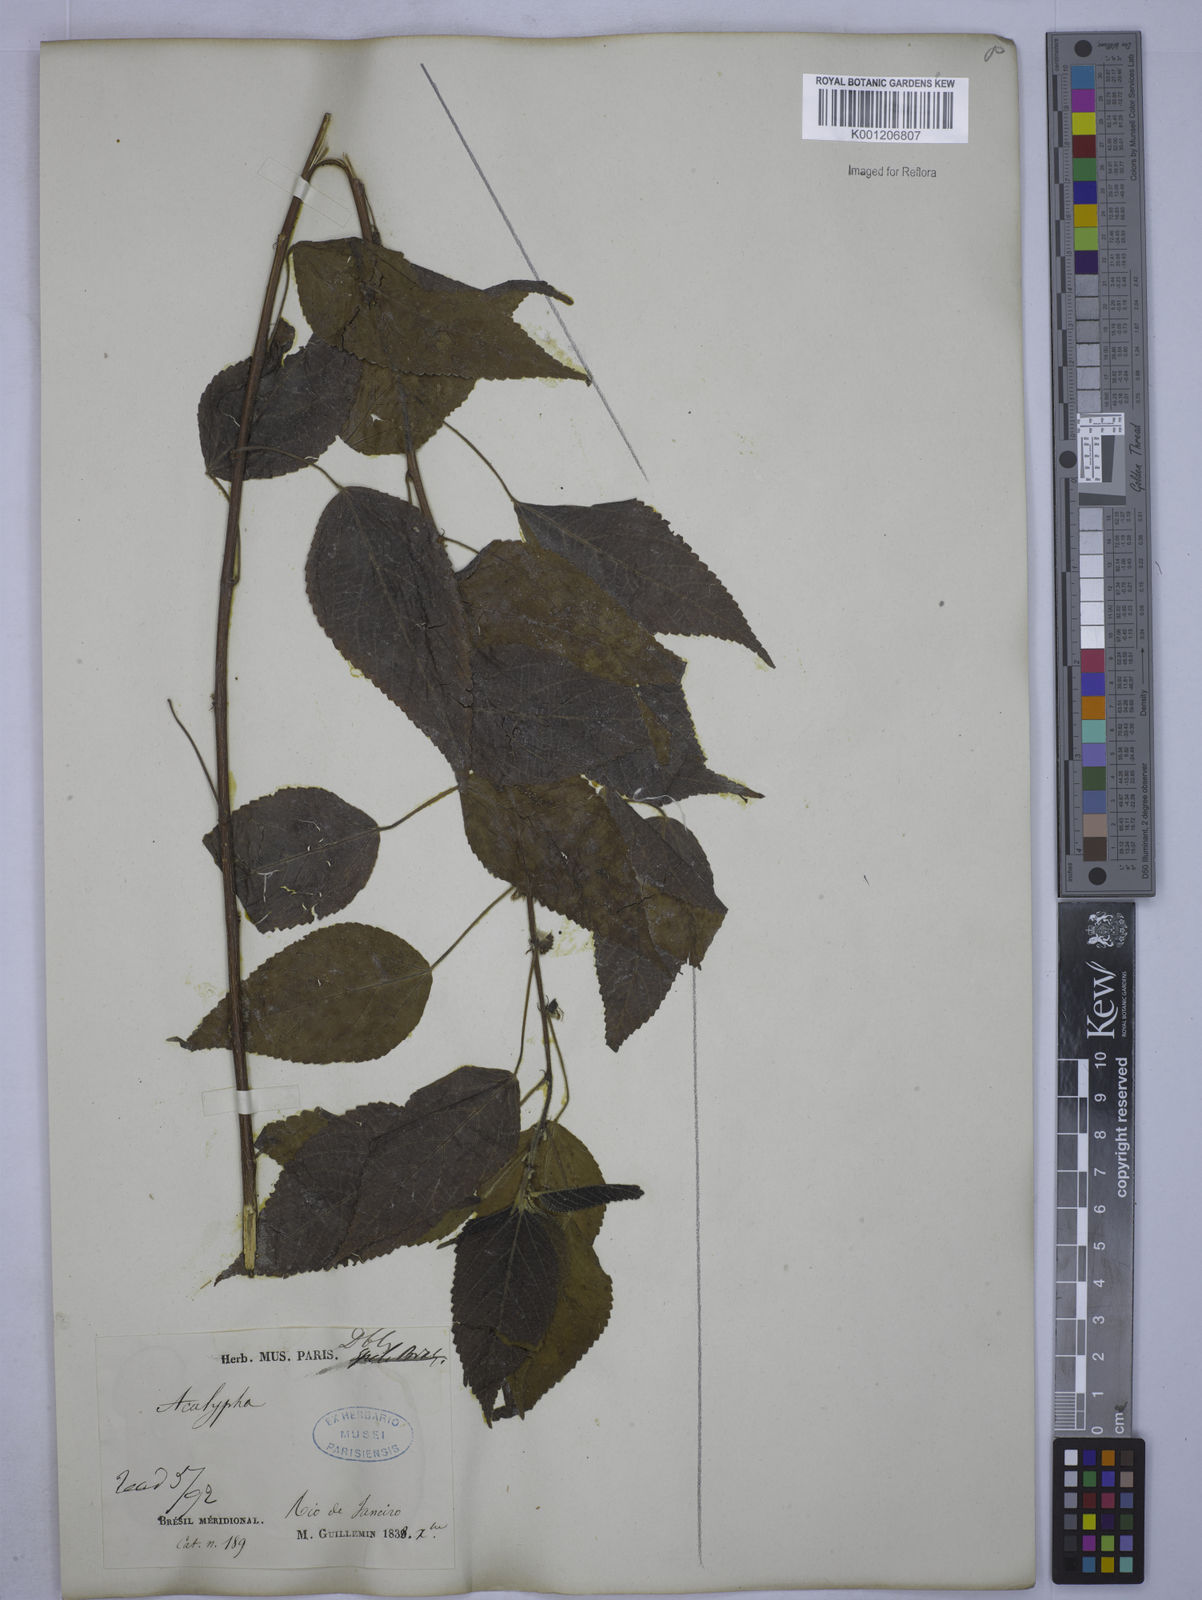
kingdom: Plantae
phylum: Tracheophyta
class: Magnoliopsida
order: Malpighiales
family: Euphorbiaceae
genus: Acalypha
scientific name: Acalypha
